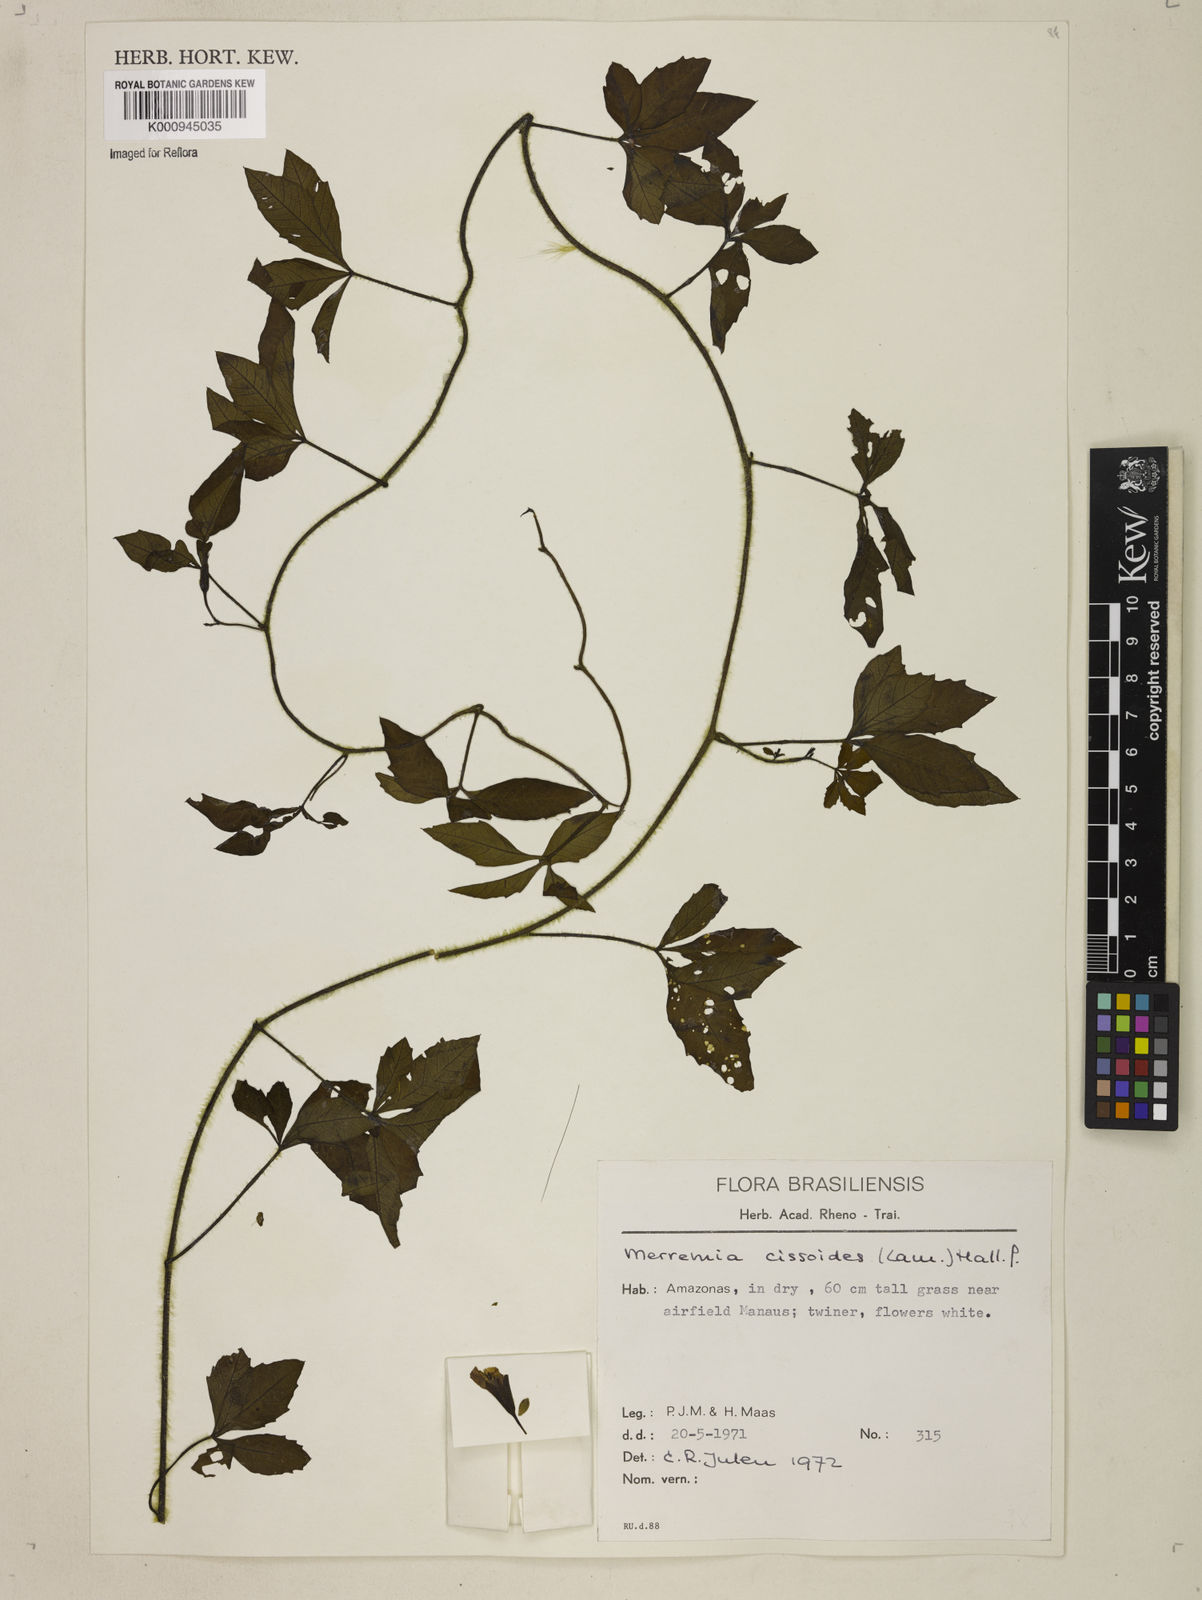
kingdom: Plantae
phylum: Tracheophyta
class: Magnoliopsida
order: Solanales
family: Convolvulaceae
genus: Distimake
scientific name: Distimake cissoides
